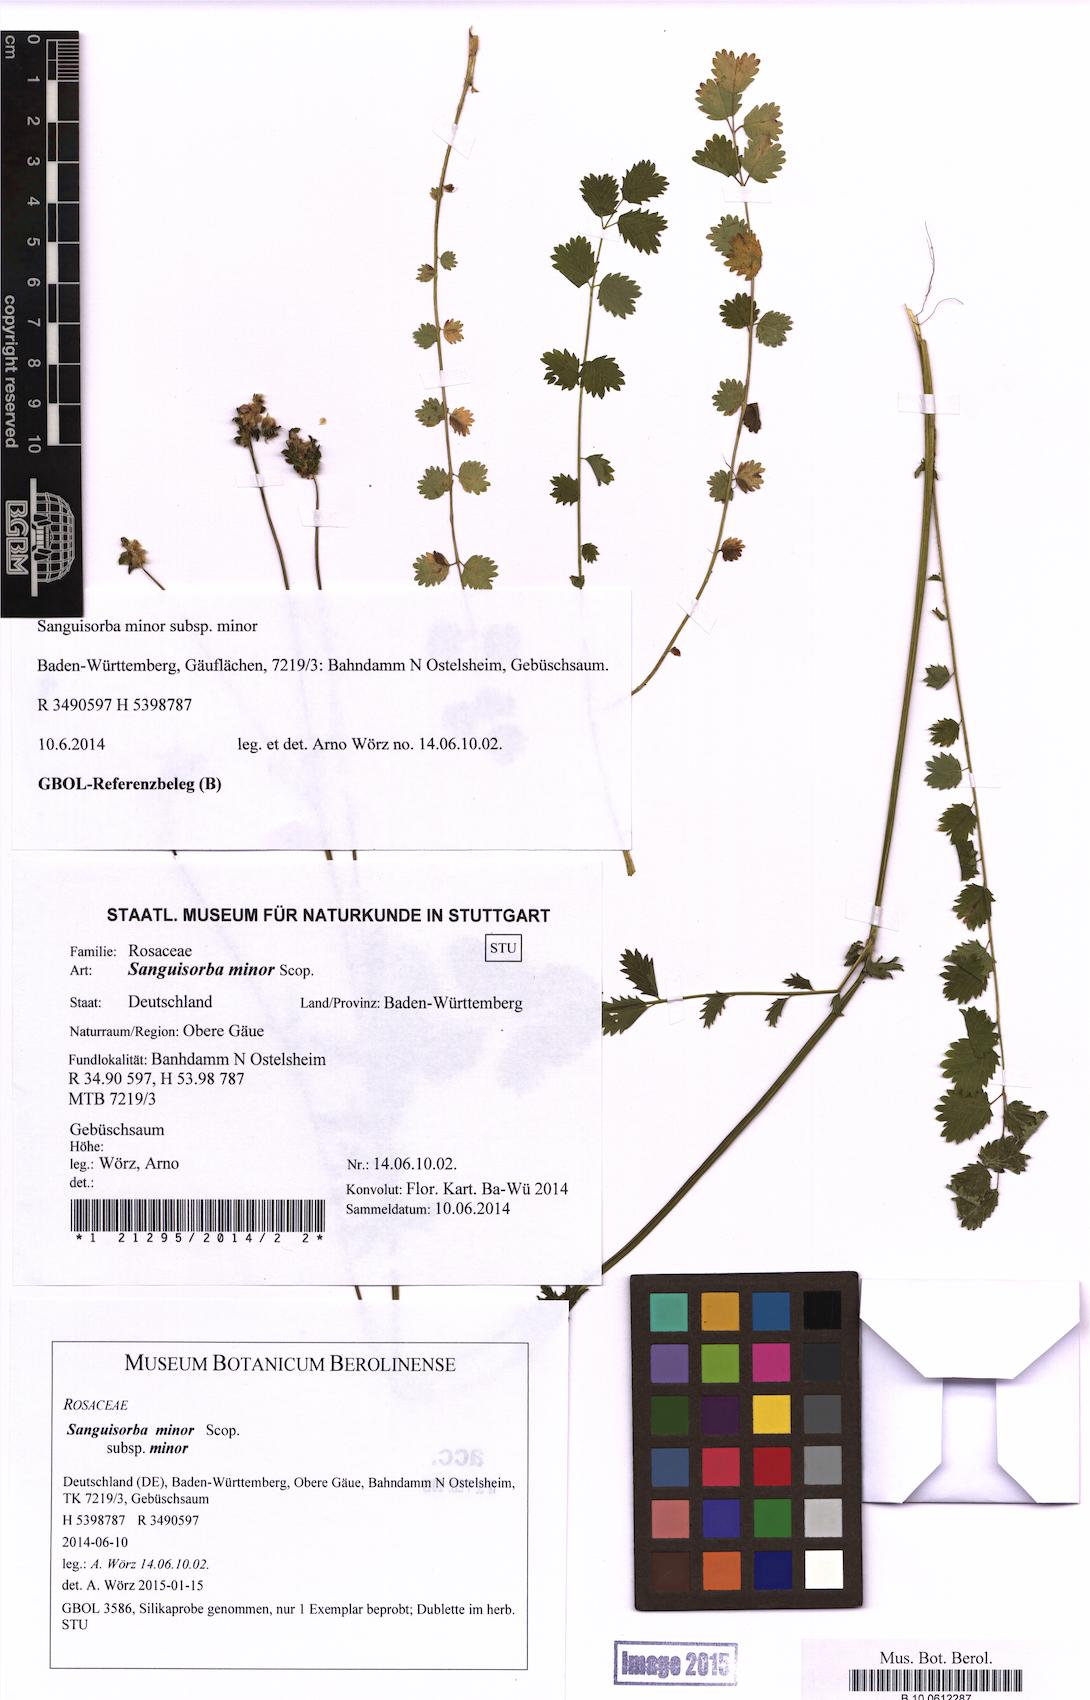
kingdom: Plantae
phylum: Tracheophyta
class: Magnoliopsida
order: Rosales
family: Rosaceae
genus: Poterium
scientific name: Poterium sanguisorba
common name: Salad burnet
